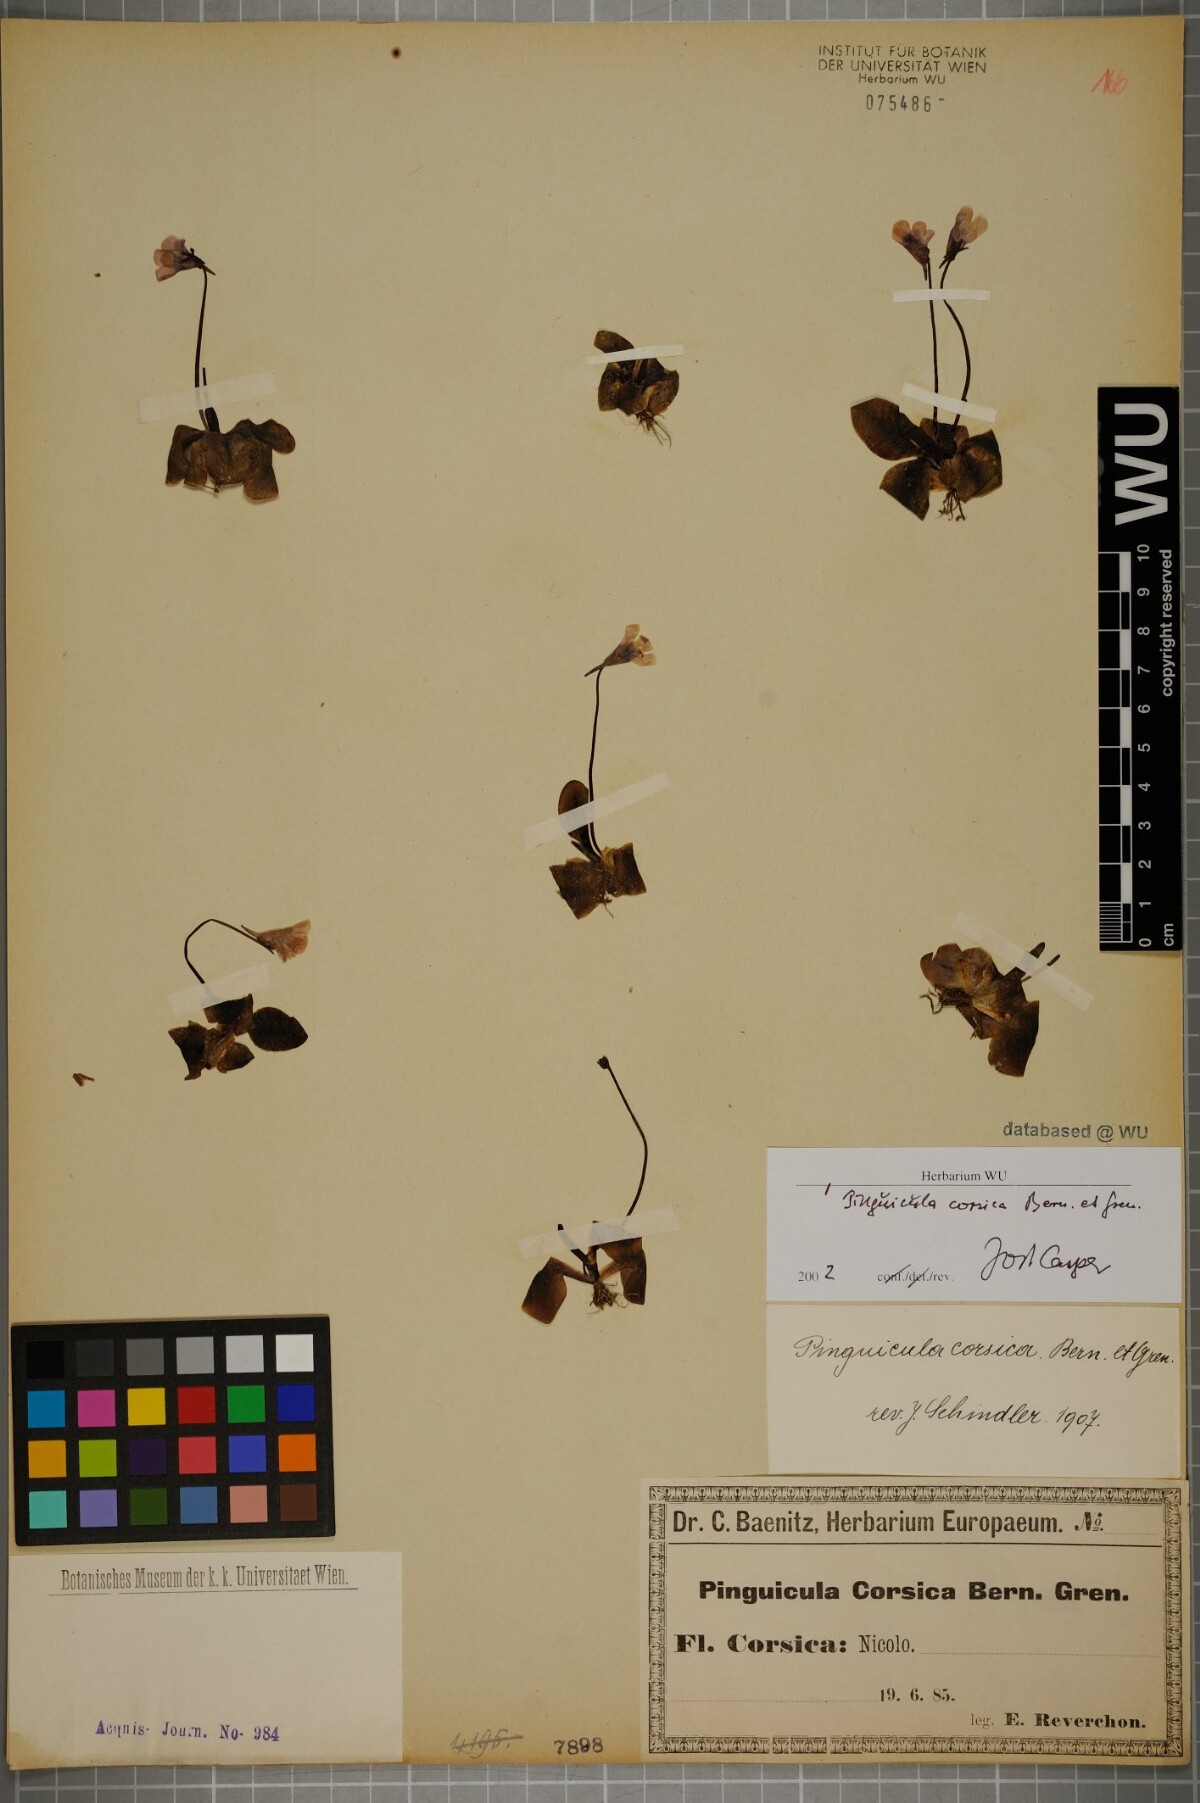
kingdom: Plantae
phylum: Tracheophyta
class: Magnoliopsida
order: Lamiales
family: Lentibulariaceae
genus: Pinguicula
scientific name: Pinguicula corsica
